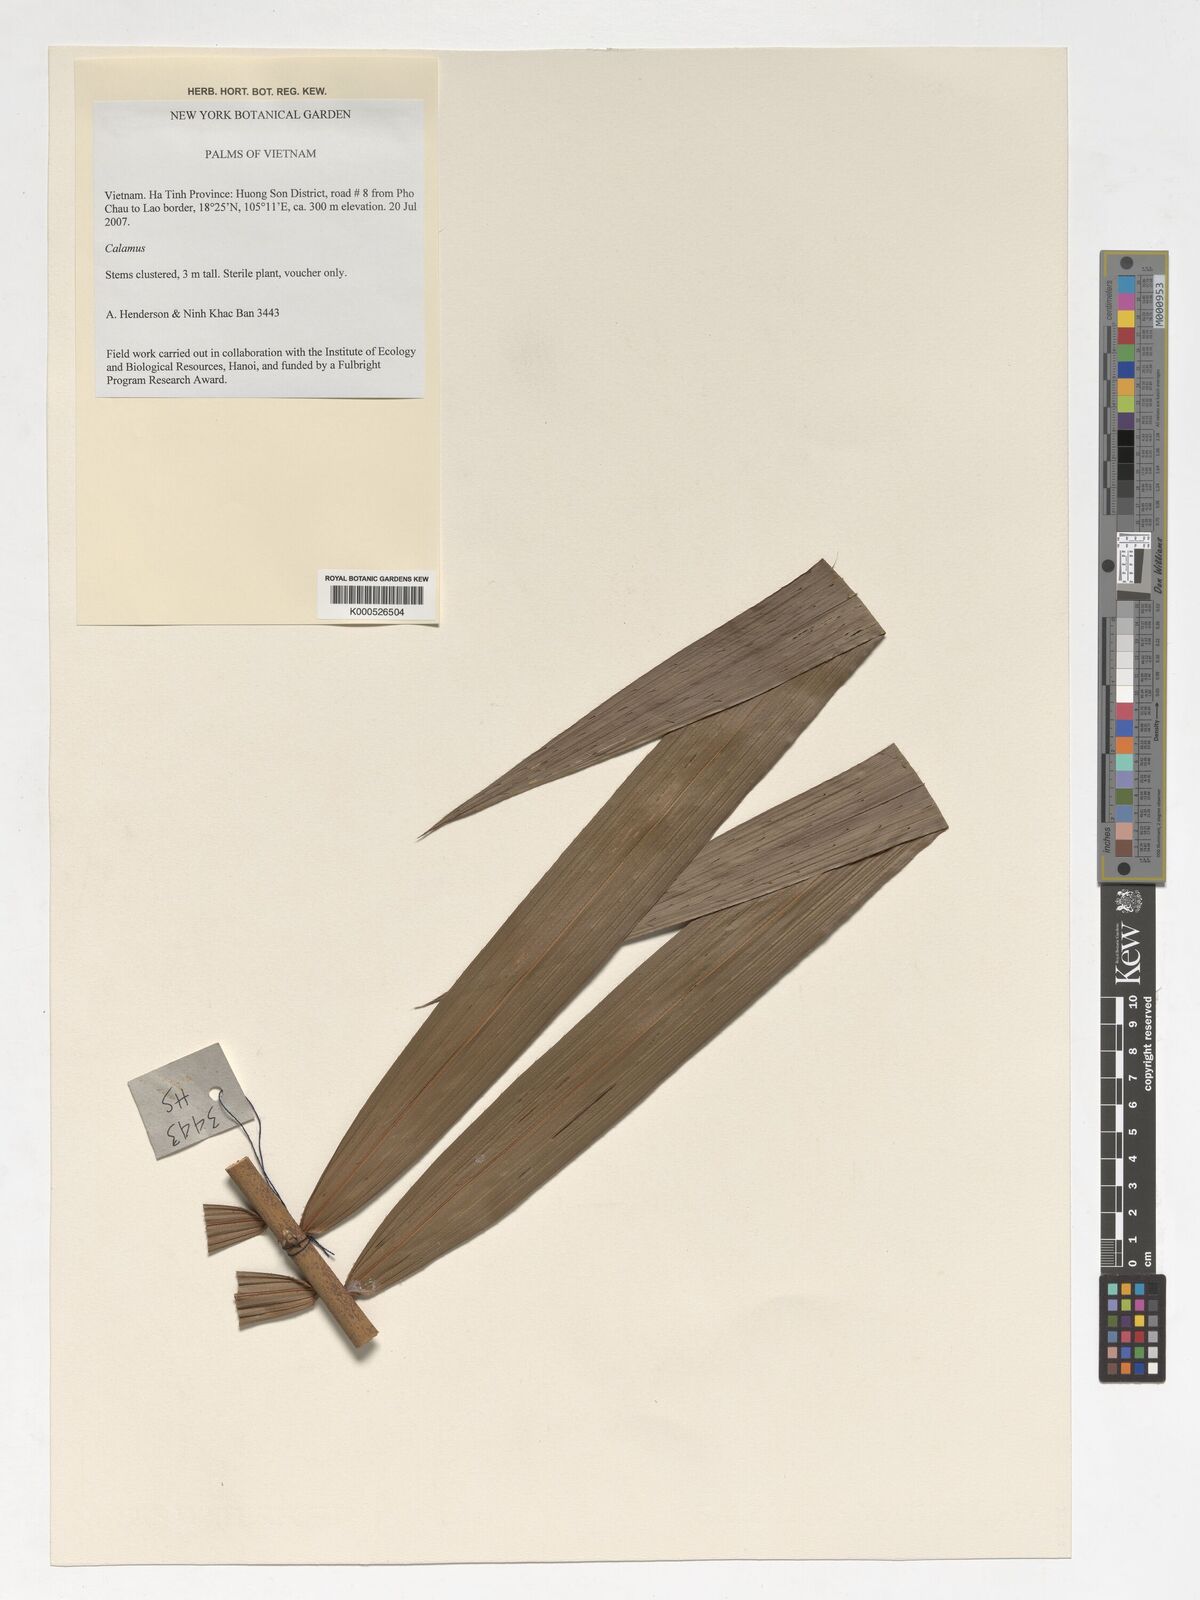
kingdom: Plantae
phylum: Tracheophyta
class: Liliopsida
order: Arecales
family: Arecaceae
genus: Calamus
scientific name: Calamus
